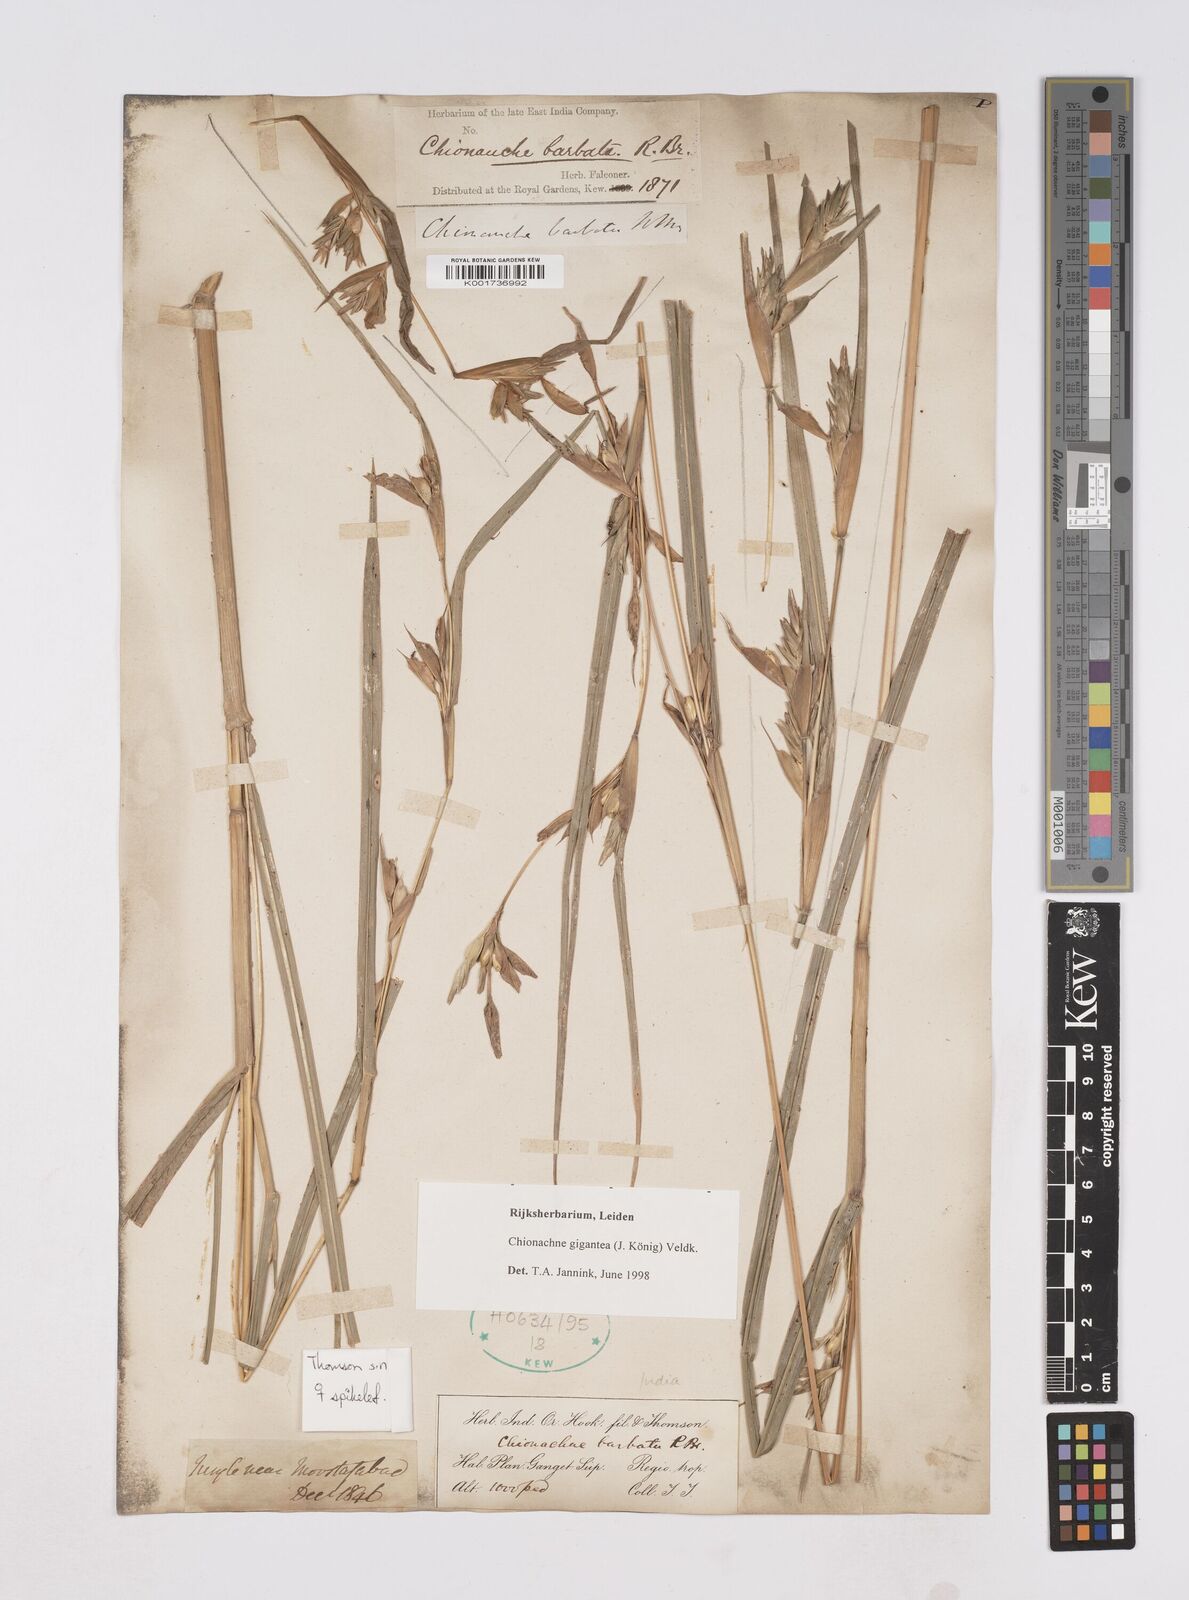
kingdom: Plantae
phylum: Tracheophyta
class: Liliopsida
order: Poales
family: Poaceae
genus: Polytoca
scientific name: Polytoca gigantea
